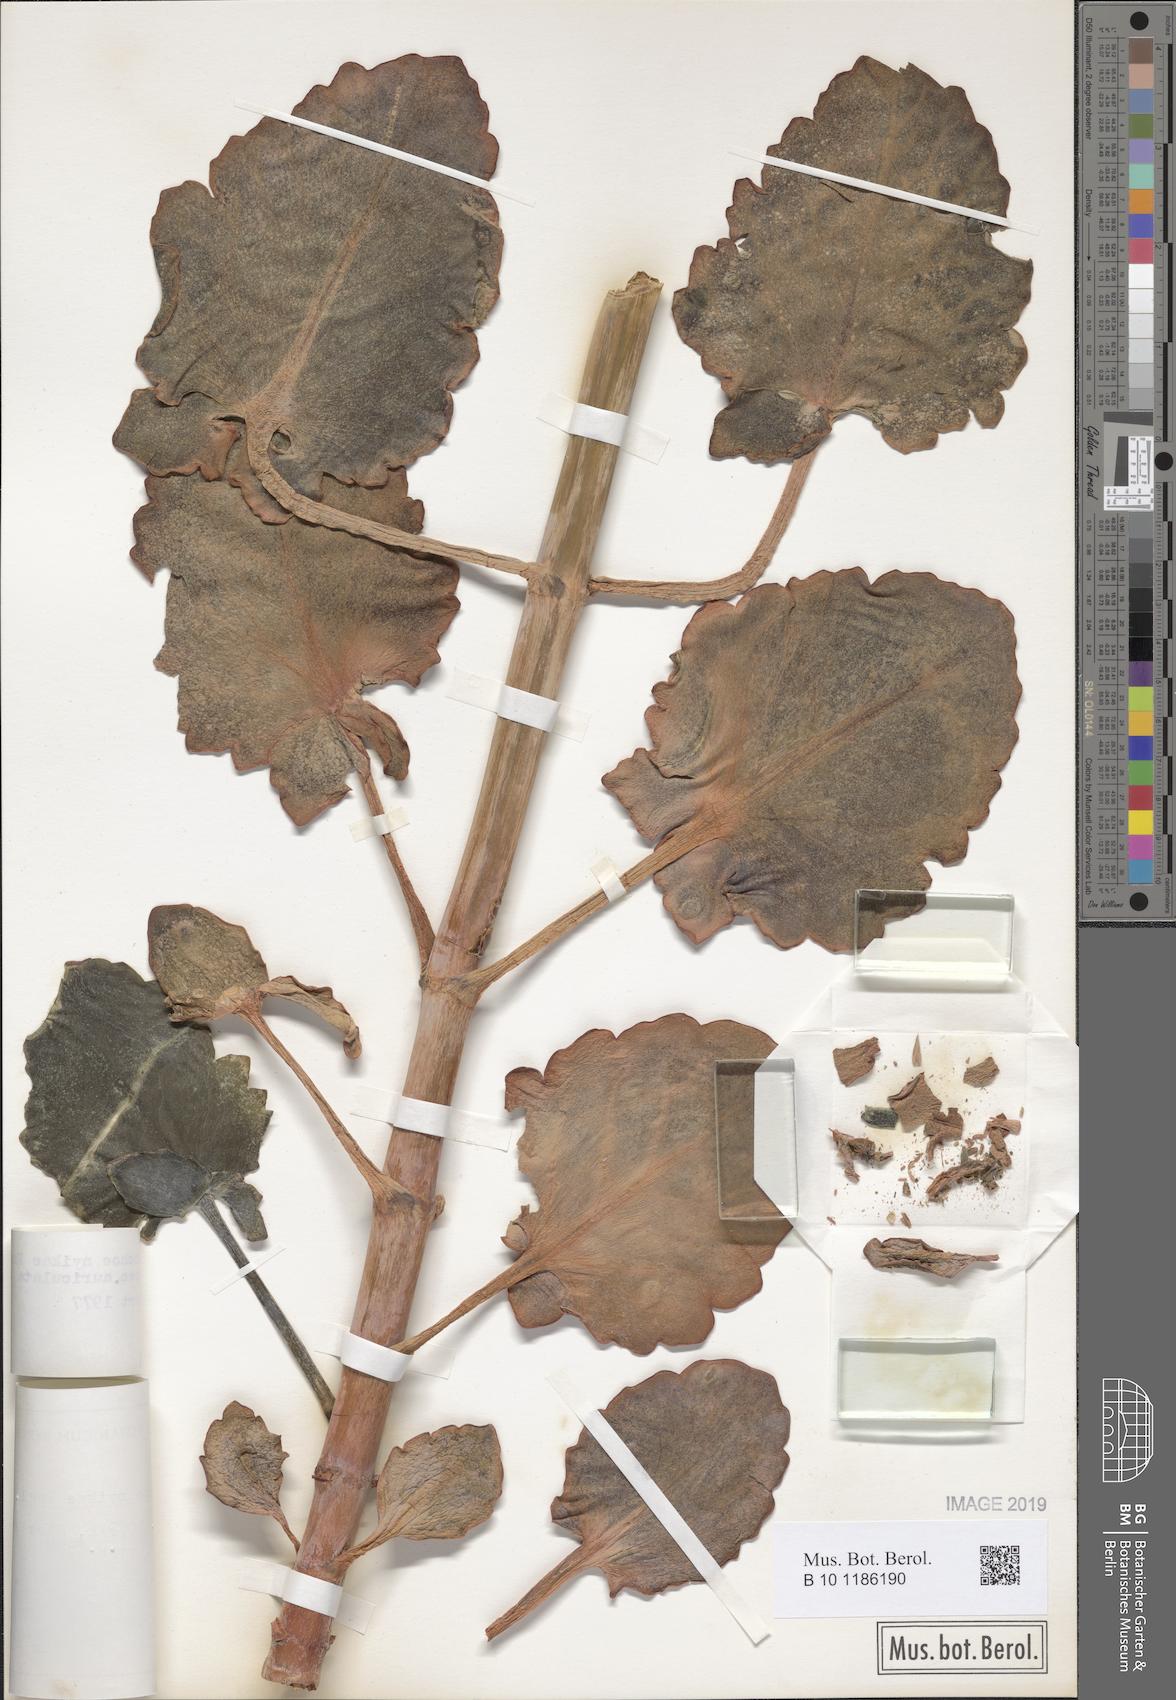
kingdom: Plantae
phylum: Tracheophyta
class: Magnoliopsida
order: Saxifragales
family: Crassulaceae
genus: Kalanchoe
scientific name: Kalanchoe auriculata
